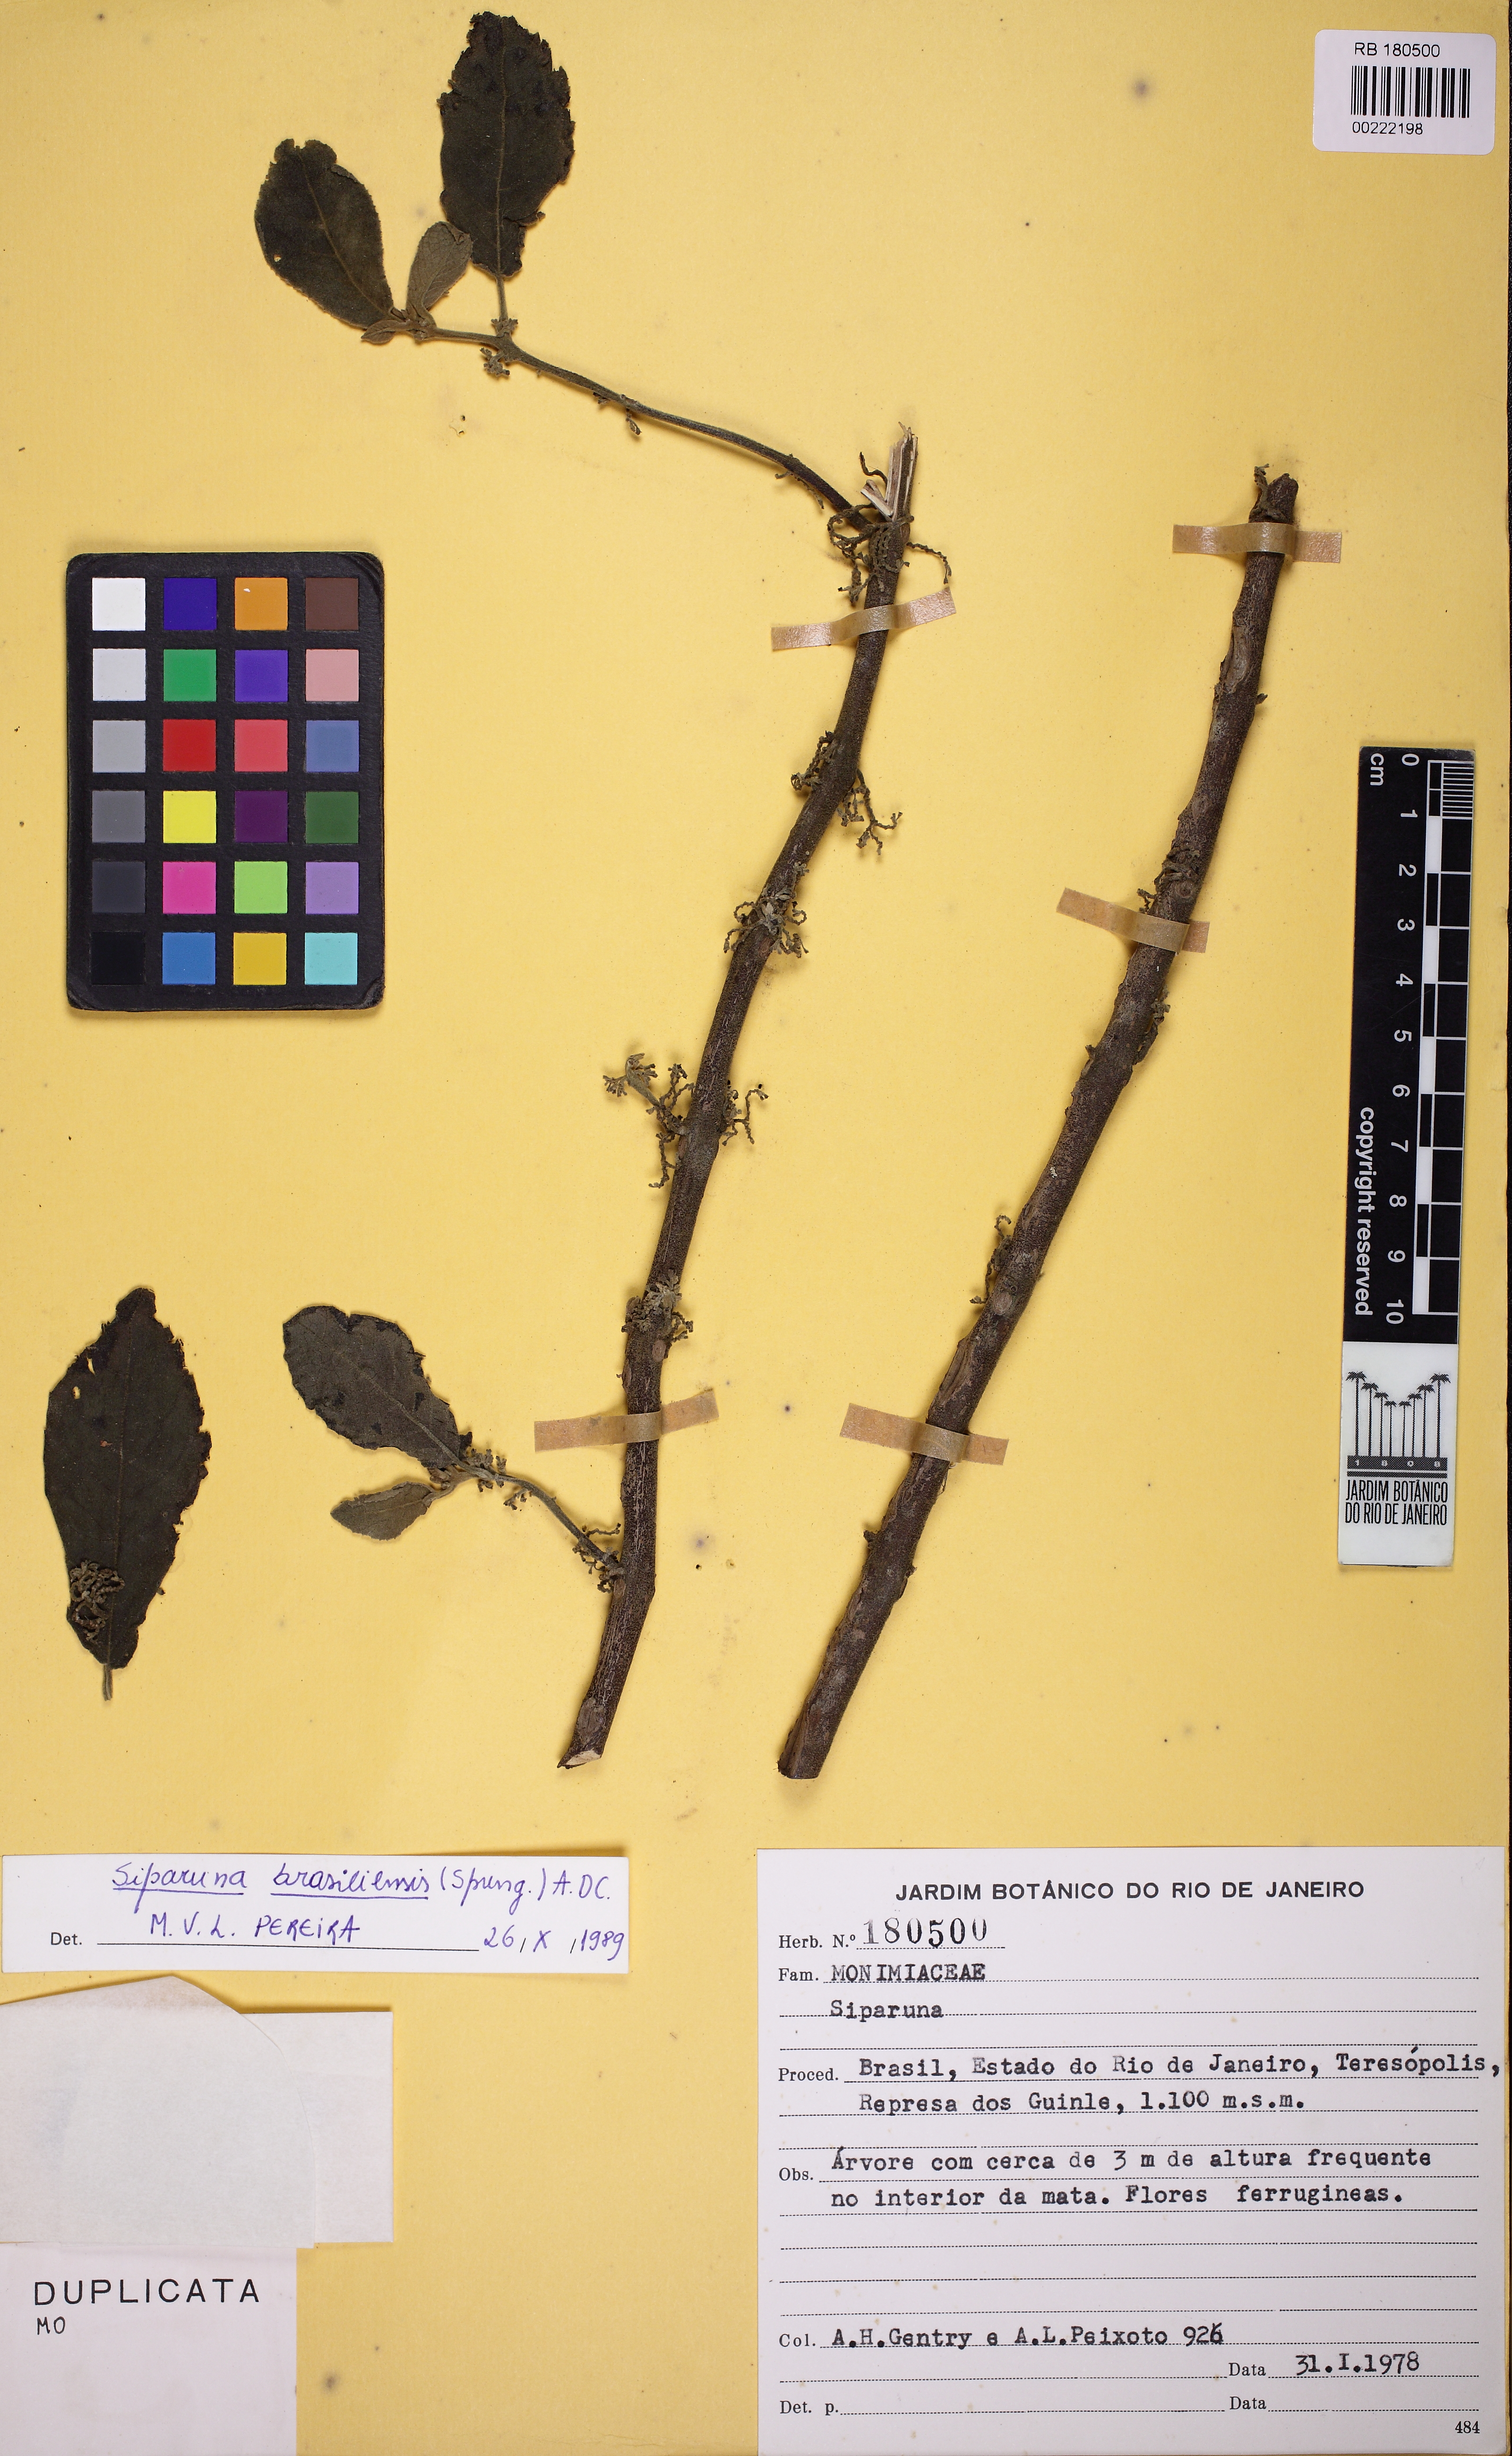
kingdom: Plantae
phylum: Tracheophyta
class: Magnoliopsida
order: Laurales
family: Siparunaceae
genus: Siparuna
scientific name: Siparuna brasiliensis
